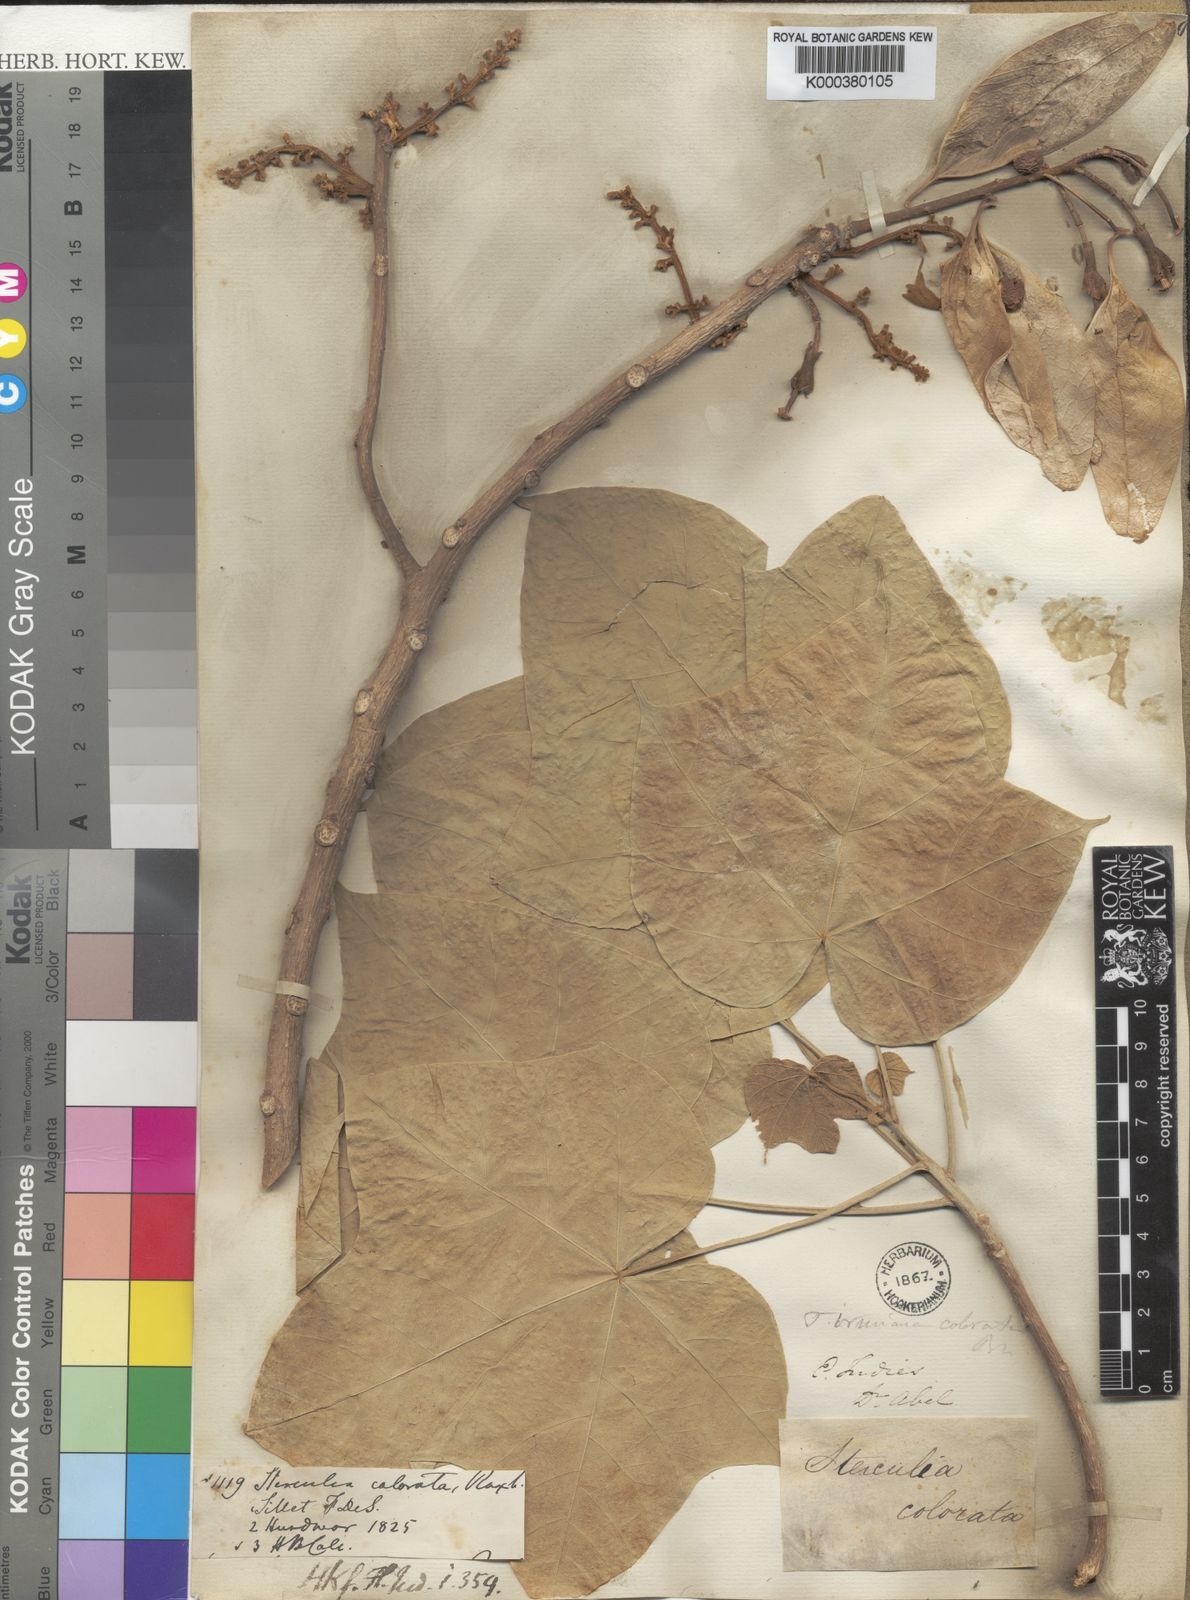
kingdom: Plantae
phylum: Tracheophyta
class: Magnoliopsida
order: Malvales
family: Malvaceae
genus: Firmiana
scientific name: Firmiana colorata
